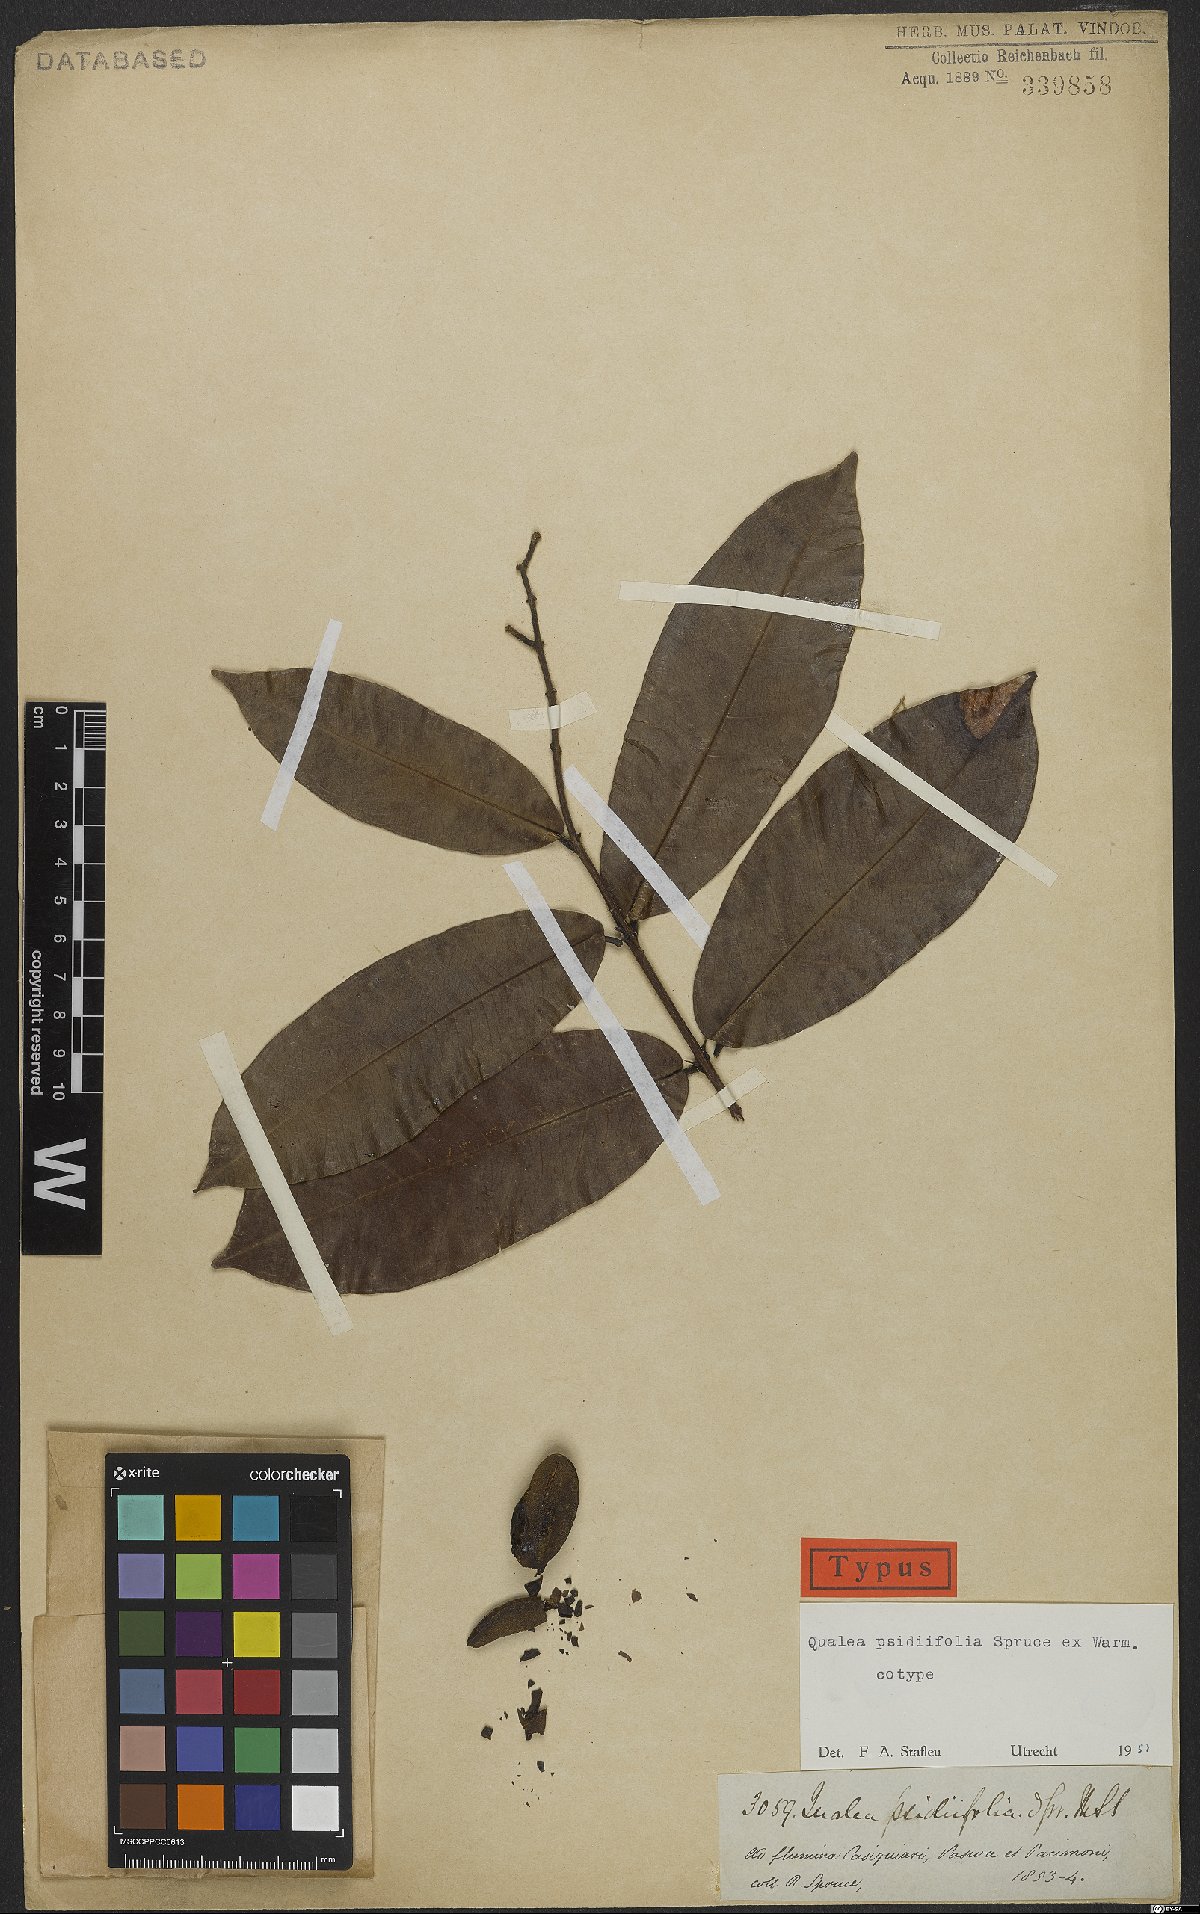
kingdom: Plantae
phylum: Tracheophyta
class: Magnoliopsida
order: Myrtales
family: Vochysiaceae
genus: Qualea
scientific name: Qualea psidiifolia
